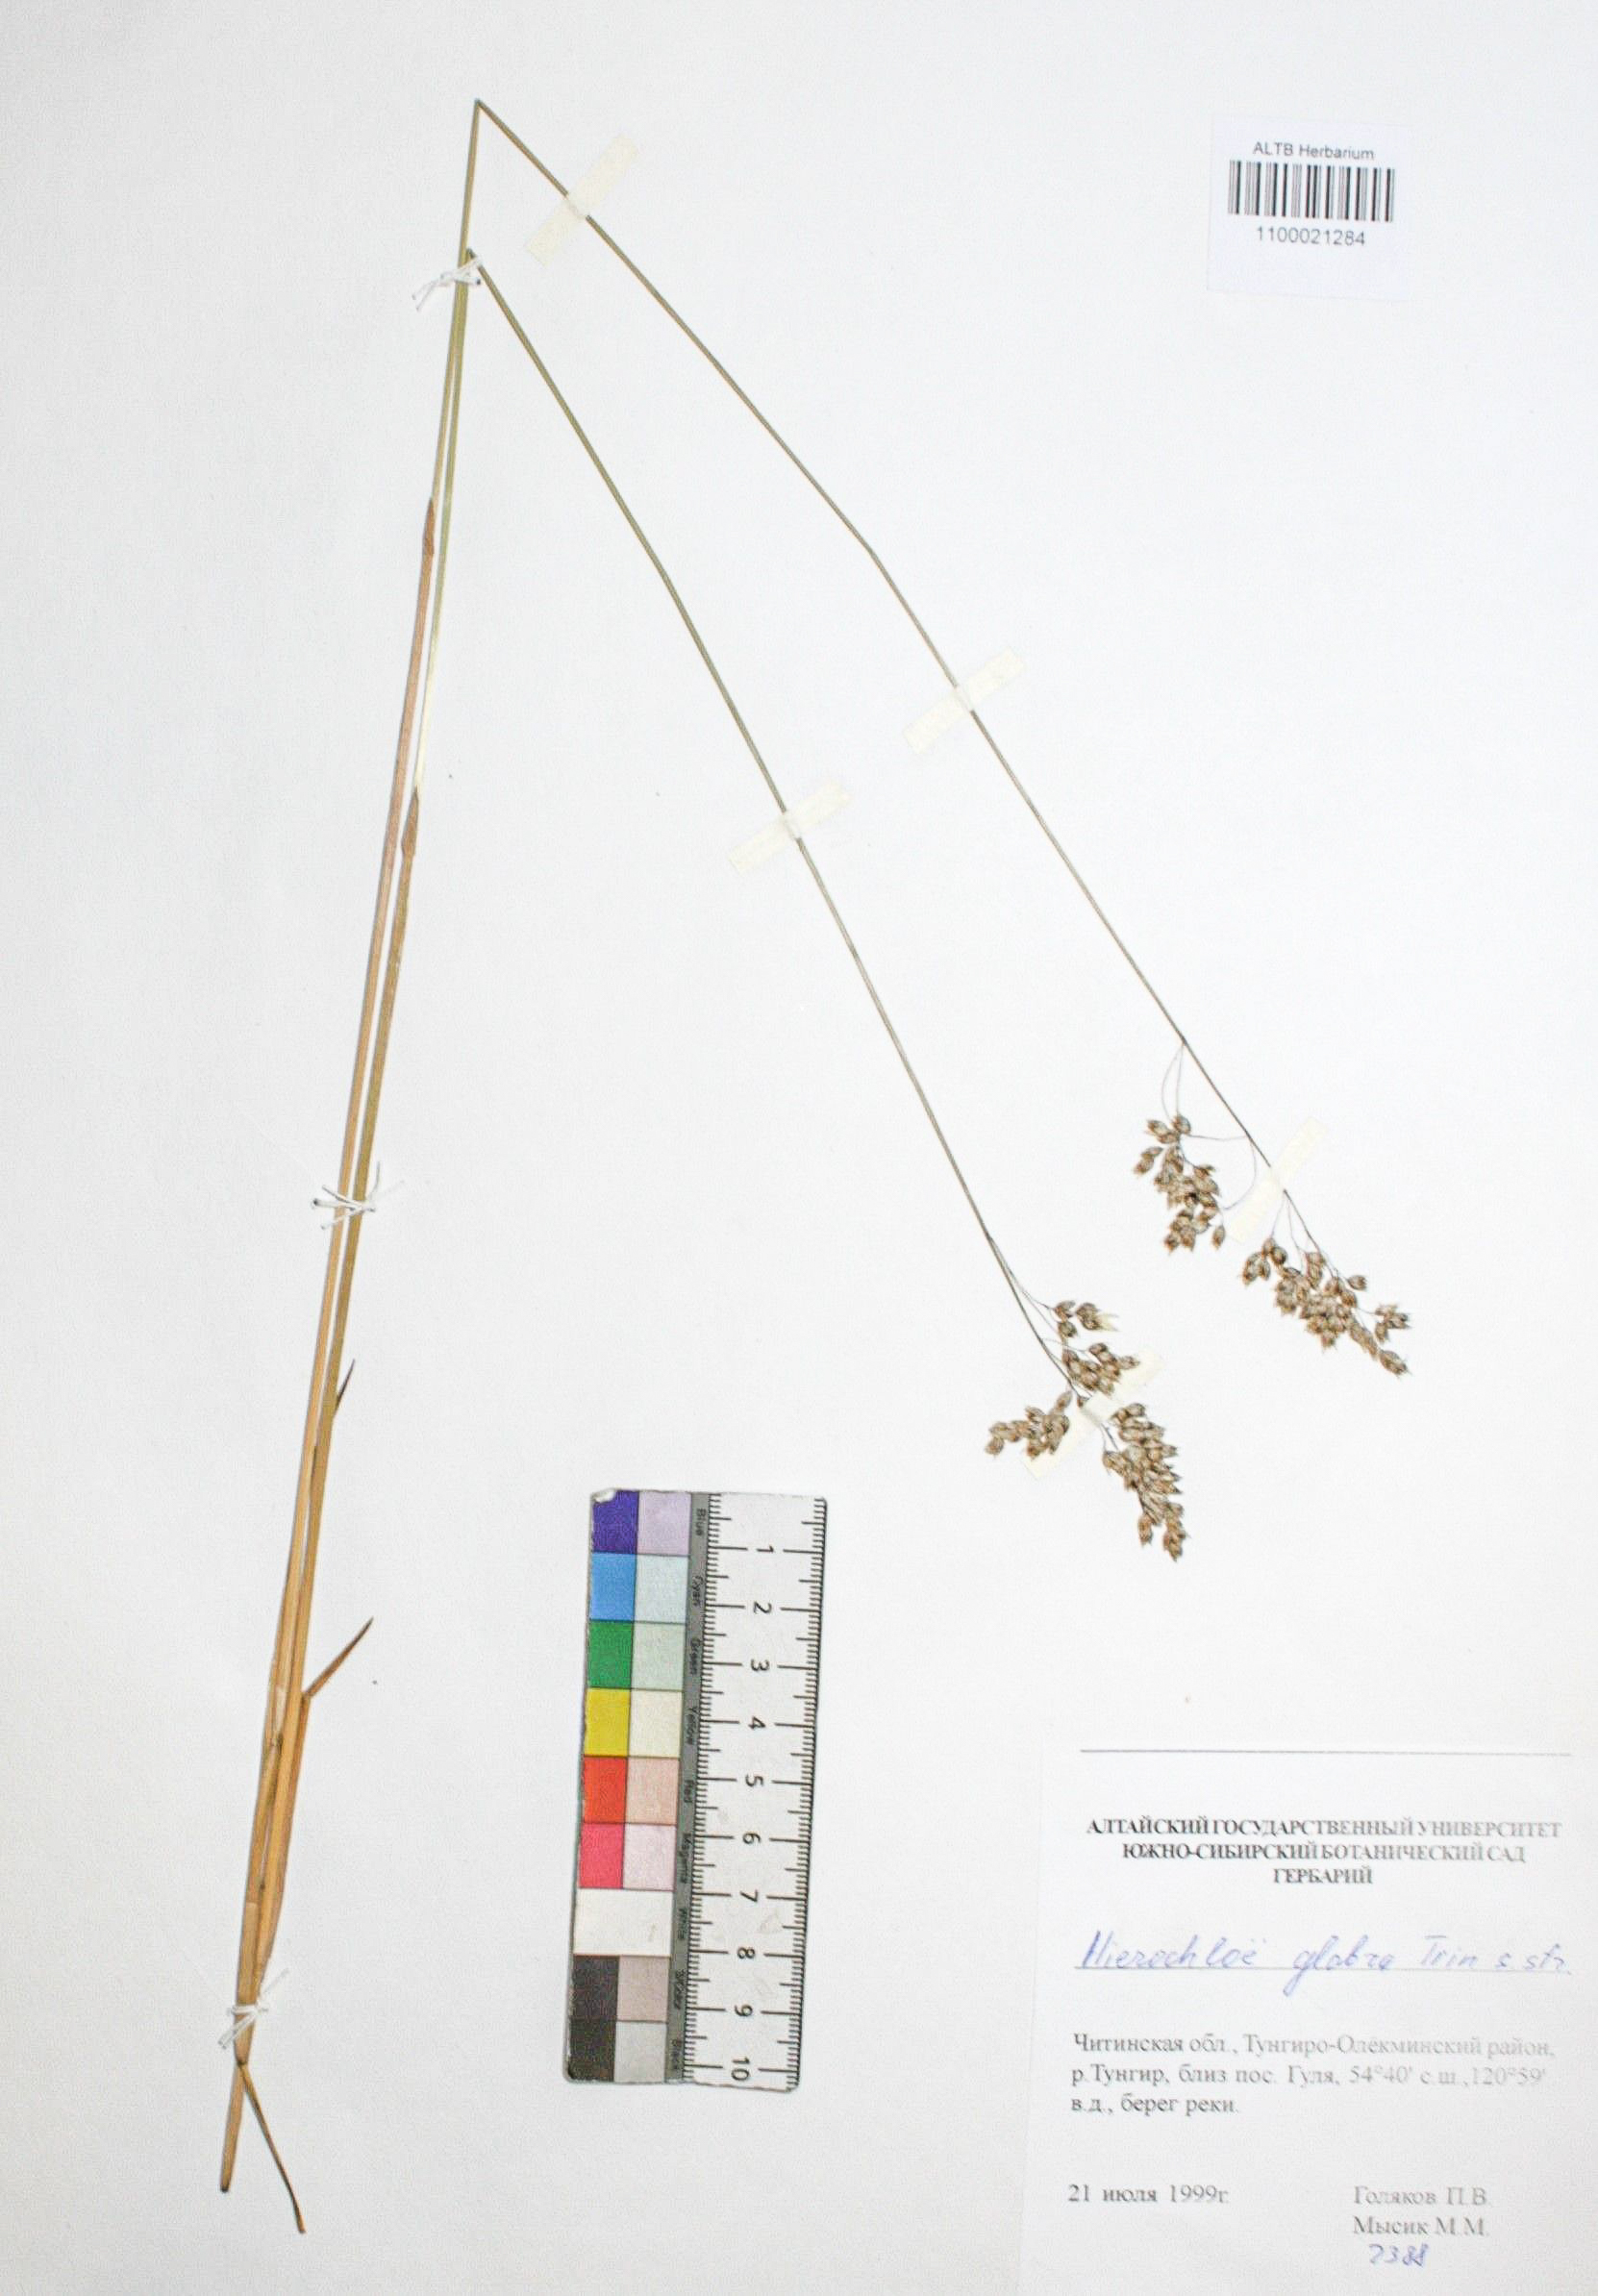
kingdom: Plantae
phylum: Tracheophyta
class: Liliopsida
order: Poales
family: Poaceae
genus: Anthoxanthum
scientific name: Anthoxanthum glabrum
